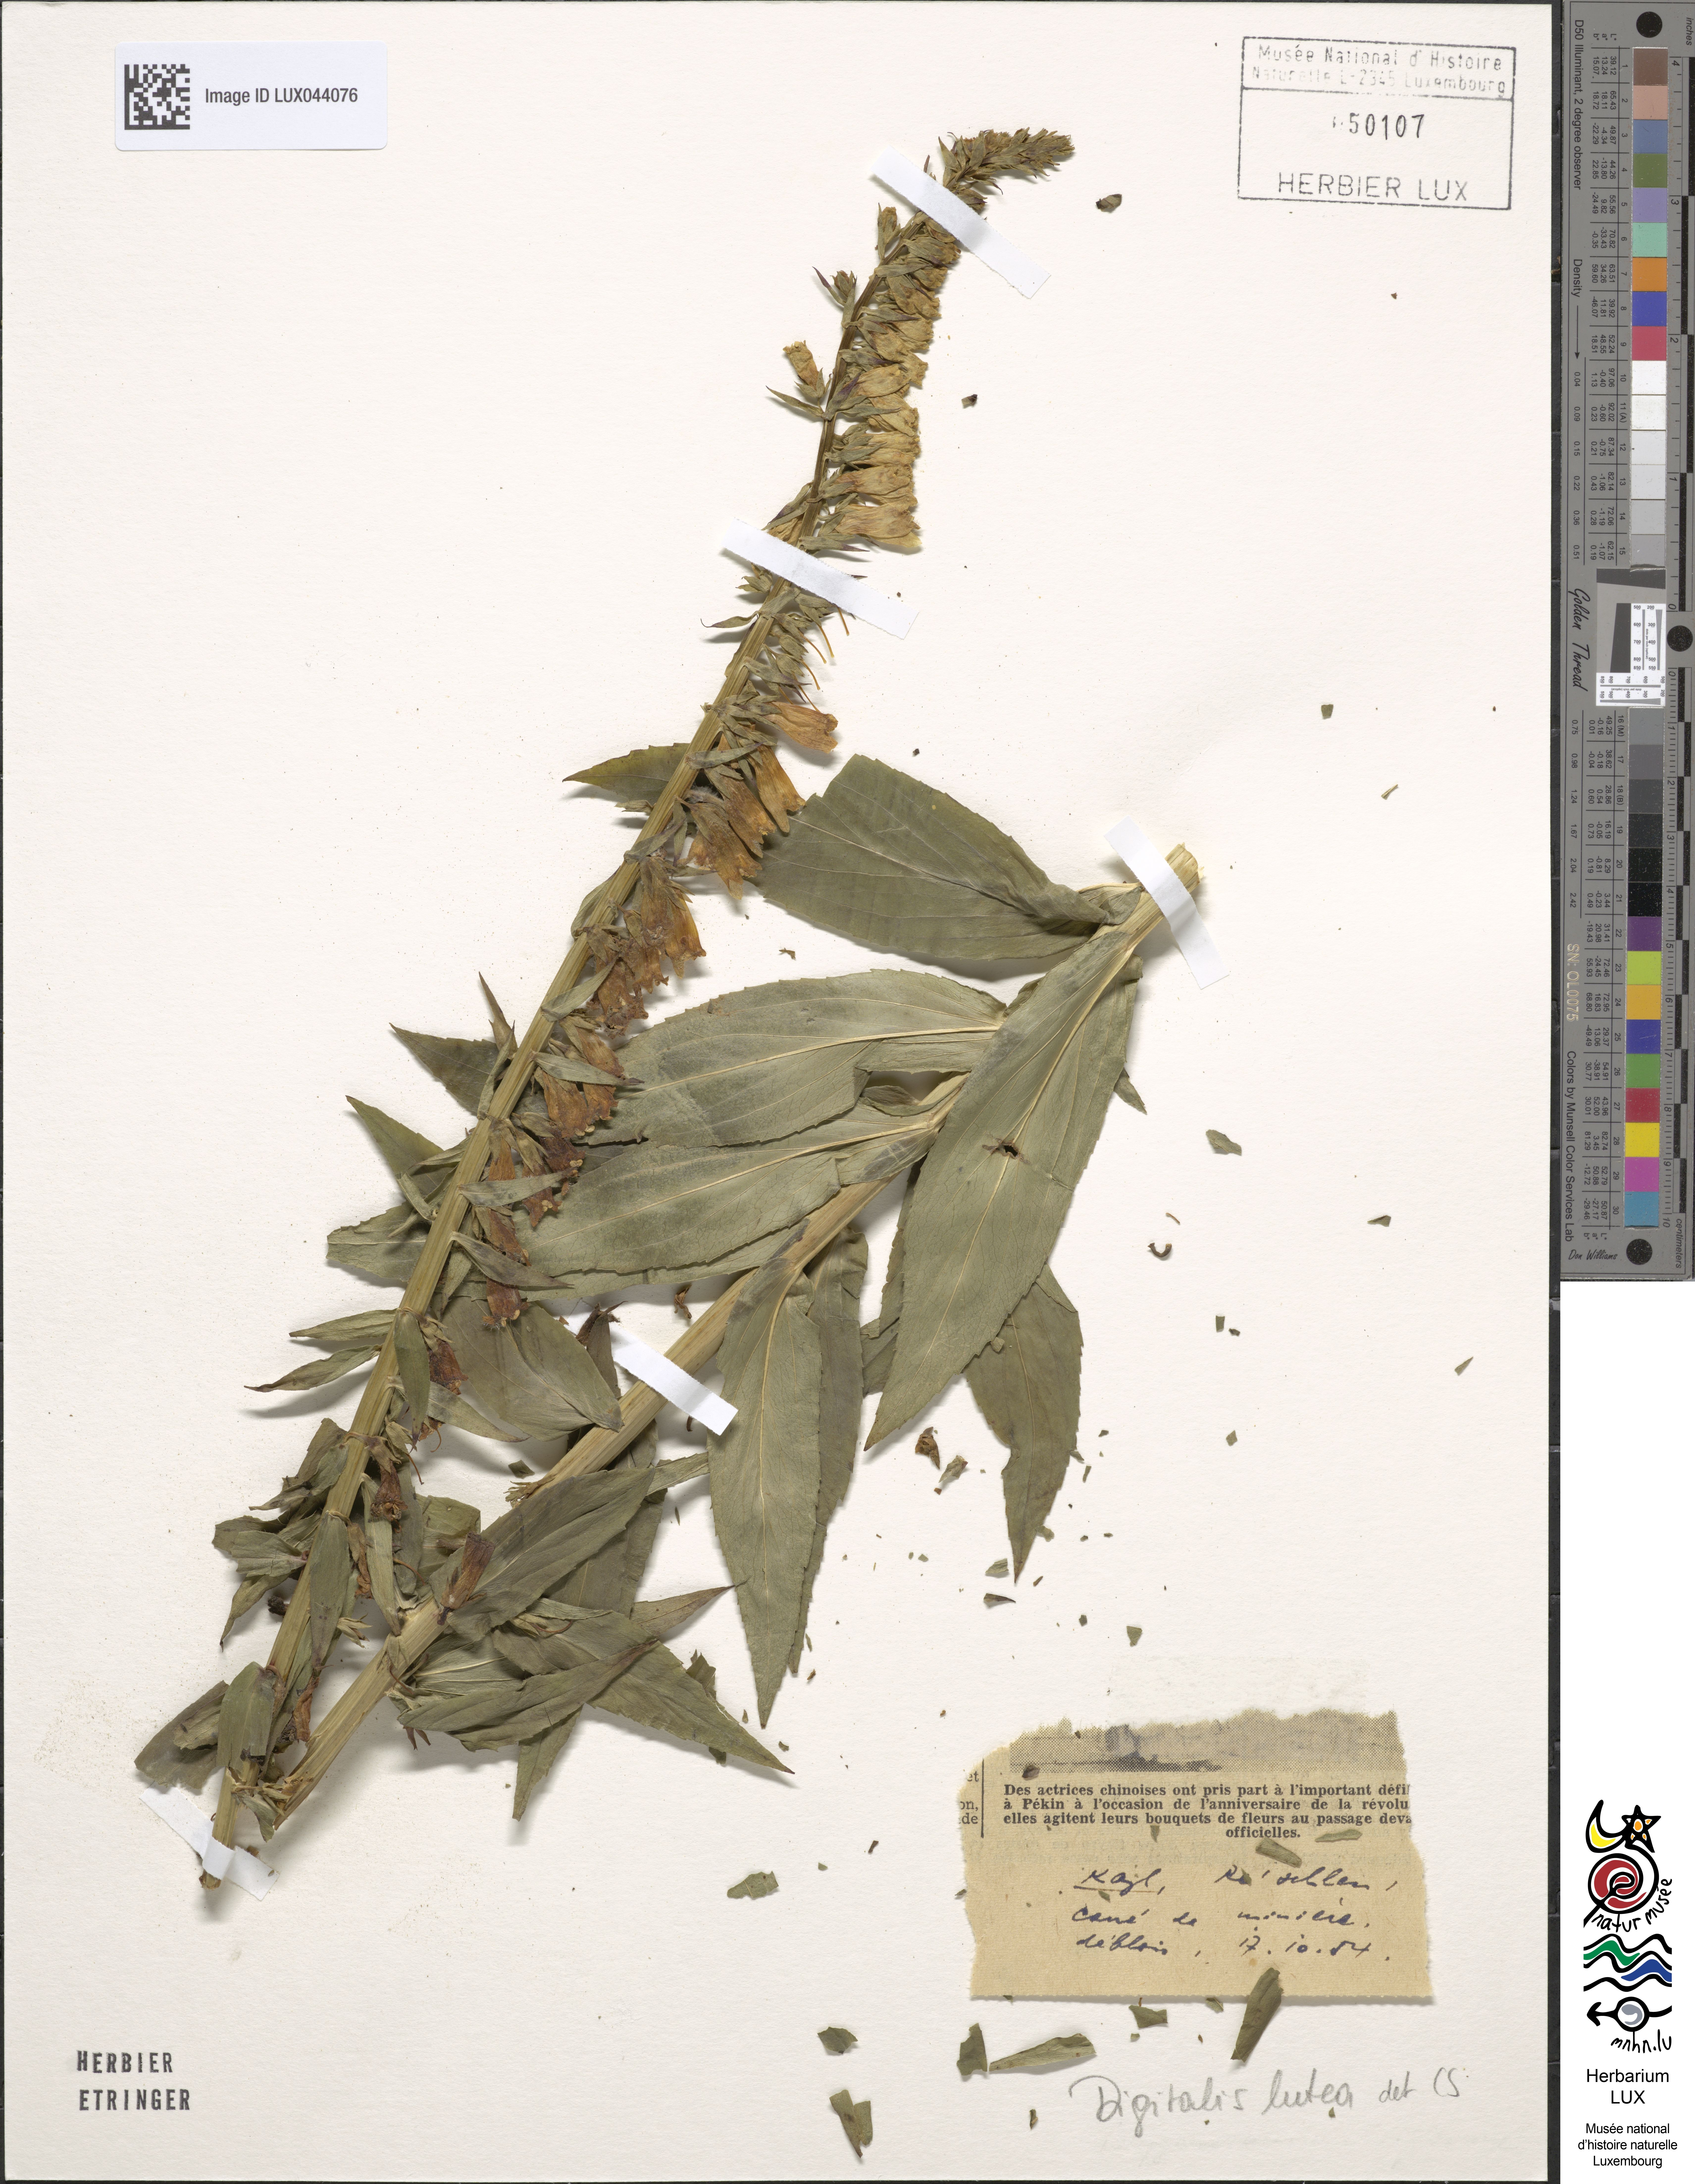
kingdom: Plantae
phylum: Tracheophyta
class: Magnoliopsida
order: Lamiales
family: Plantaginaceae
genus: Digitalis
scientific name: Digitalis lutea
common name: Straw foxglove
